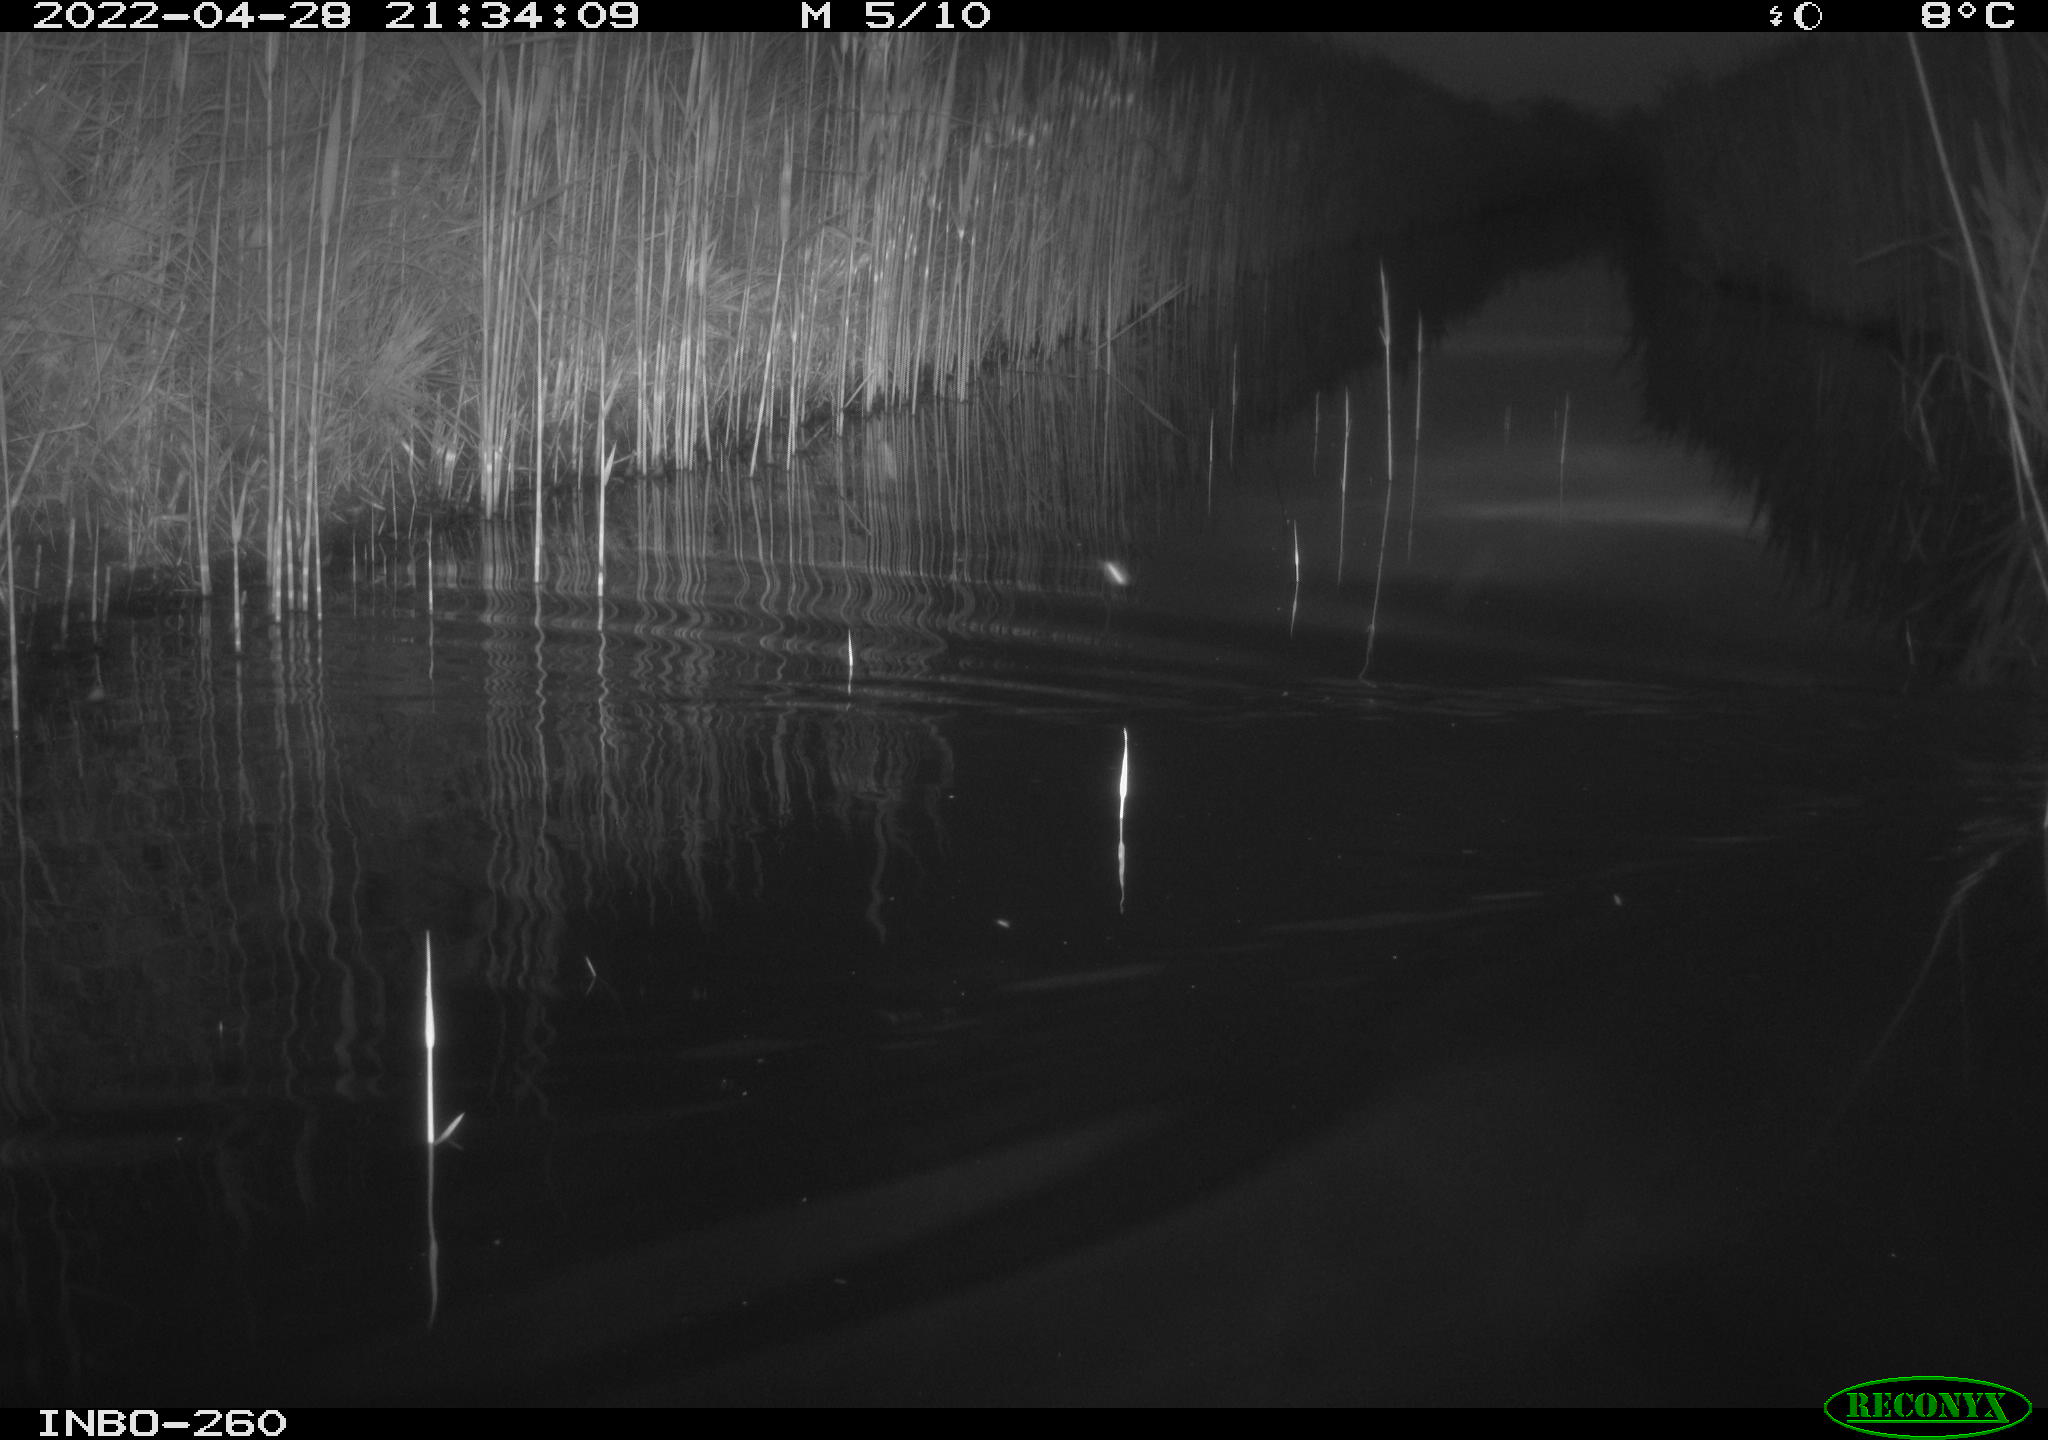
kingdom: Animalia
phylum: Chordata
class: Mammalia
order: Rodentia
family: Muridae
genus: Rattus
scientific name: Rattus norvegicus
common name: Brown rat
